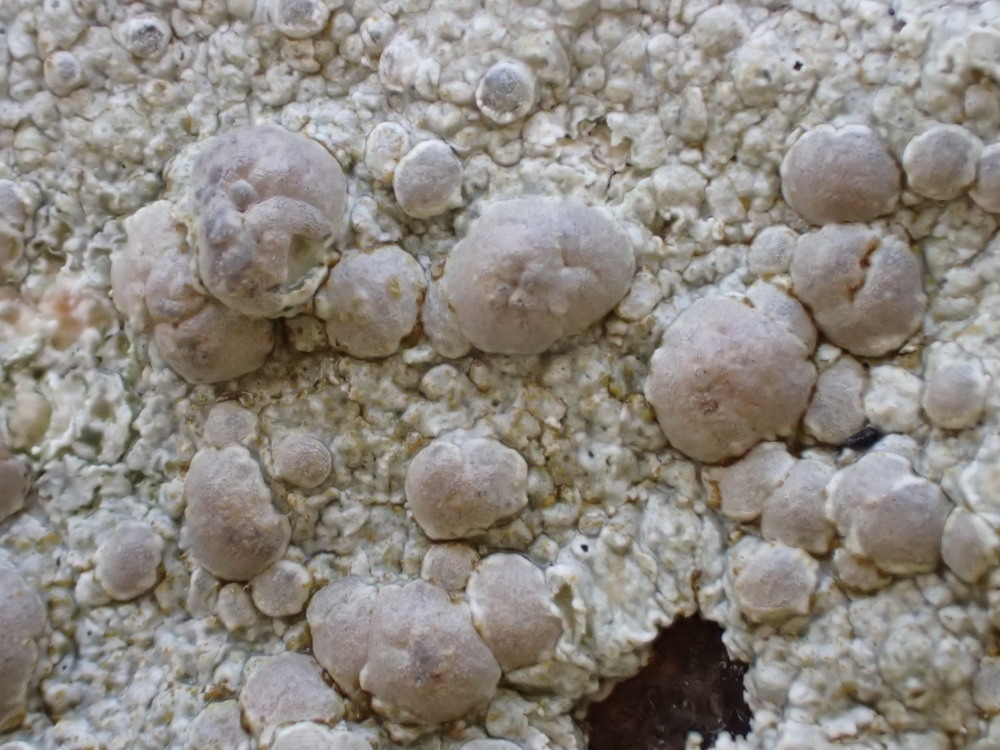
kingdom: Fungi
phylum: Ascomycota
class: Lecanoromycetes
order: Lecanorales
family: Lecanoraceae
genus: Glaucomaria
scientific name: Glaucomaria rupicola
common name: stengærde-kantskivelav
